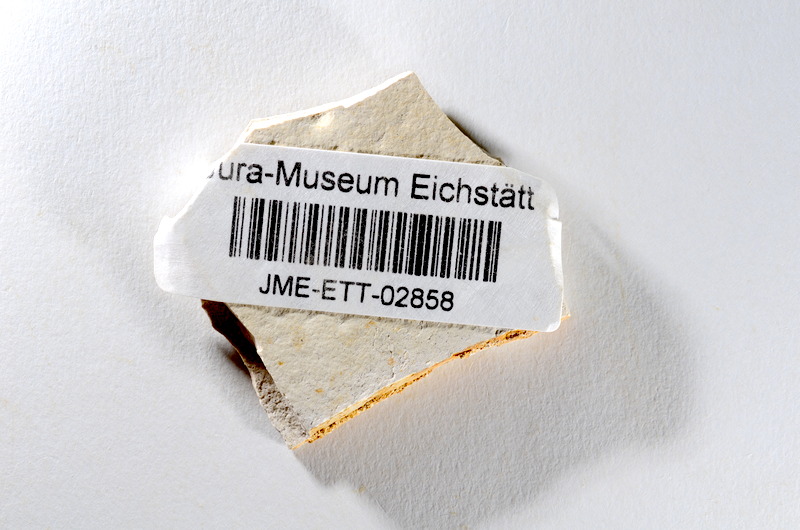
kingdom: Animalia
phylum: Chordata
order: Salmoniformes
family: Orthogonikleithridae
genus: Orthogonikleithrus
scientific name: Orthogonikleithrus hoelli
